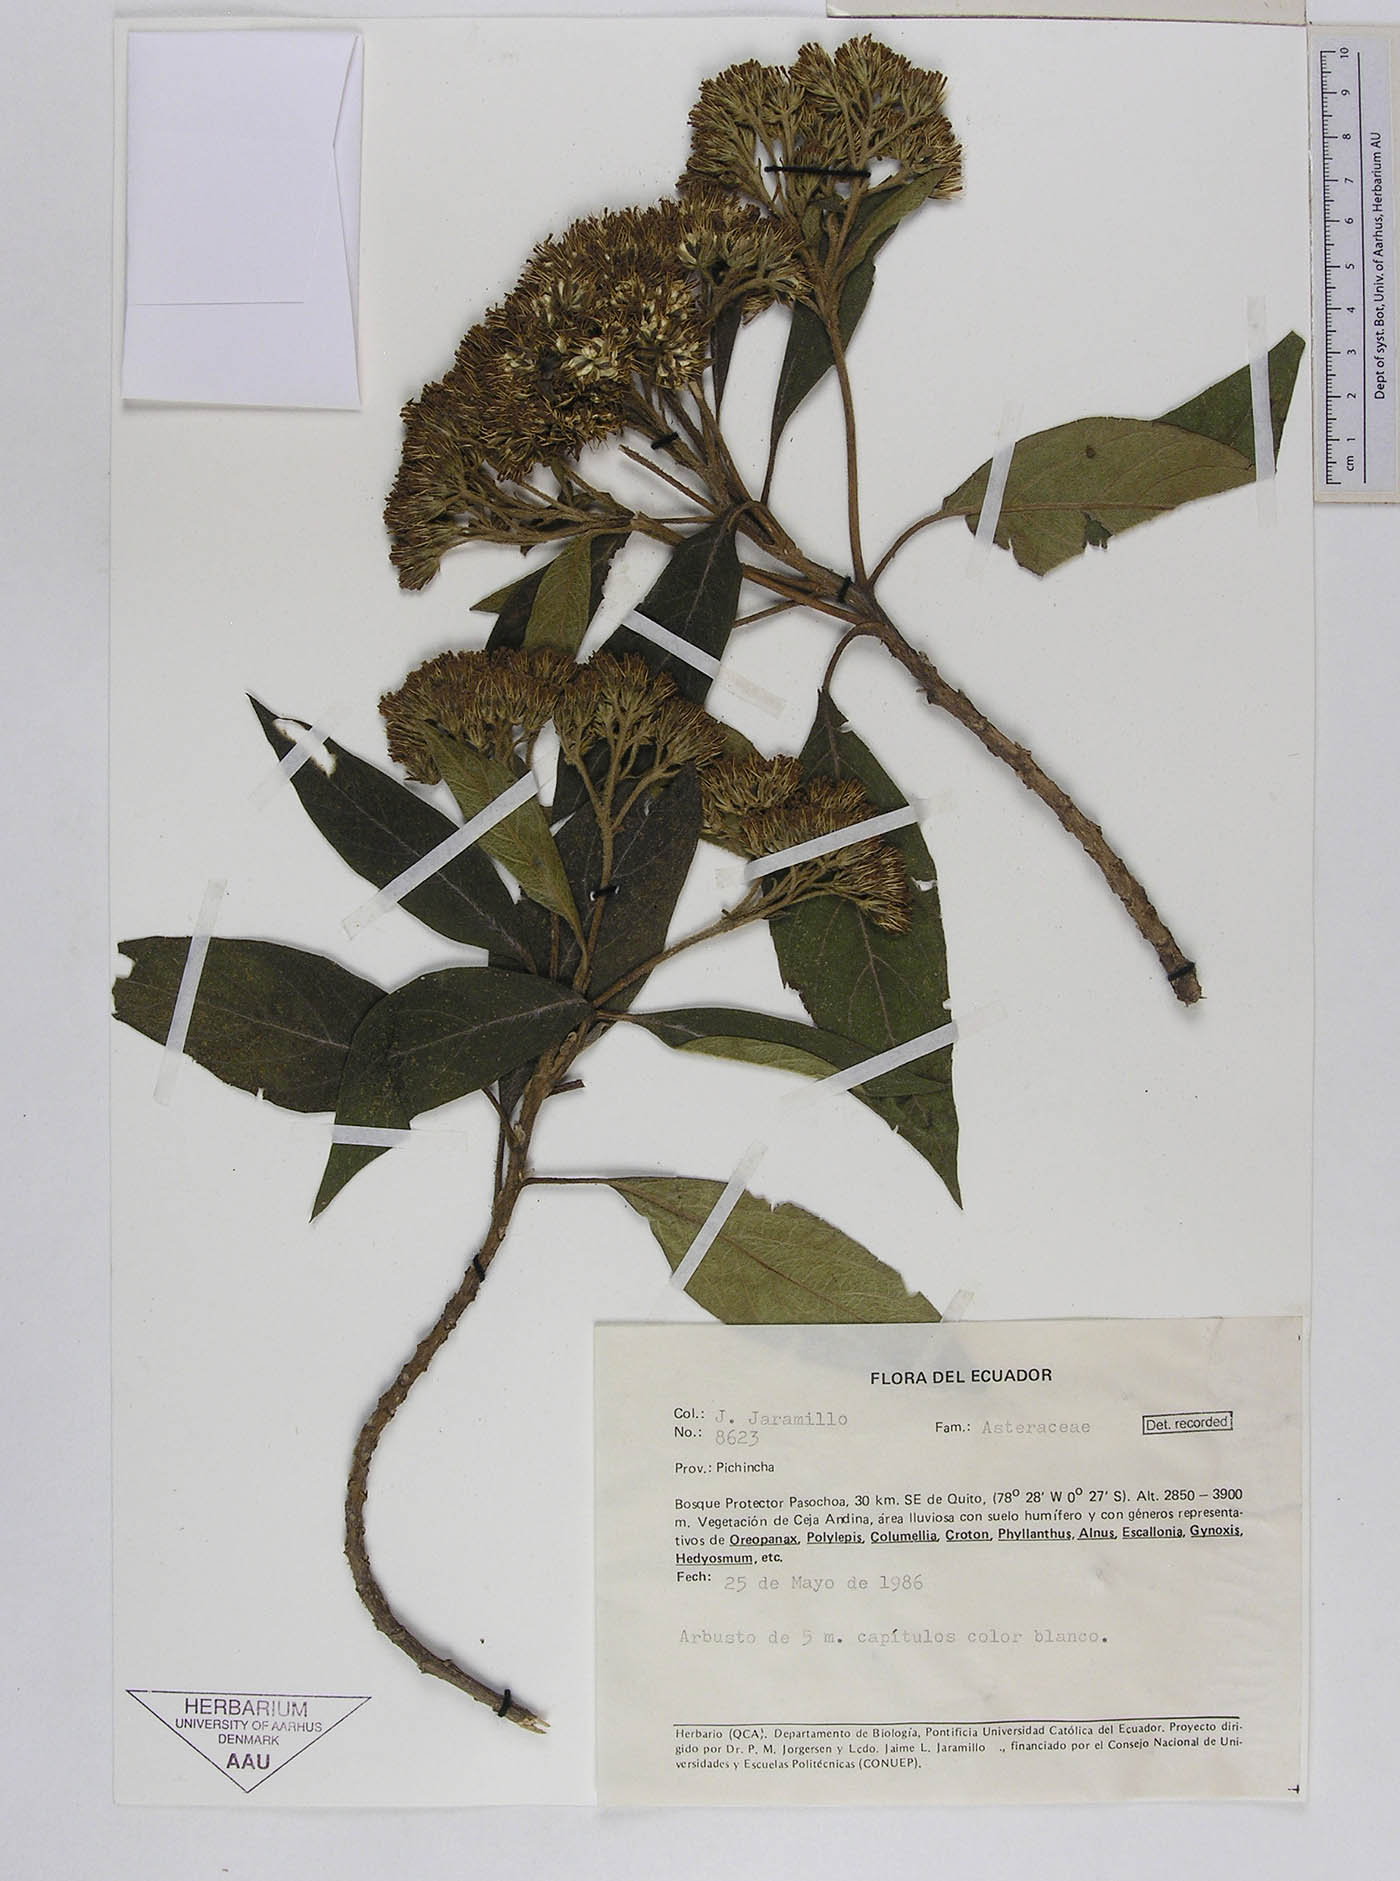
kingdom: Plantae
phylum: Tracheophyta
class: Magnoliopsida
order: Asterales
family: Asteraceae
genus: Verbesina
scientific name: Verbesina arborea
